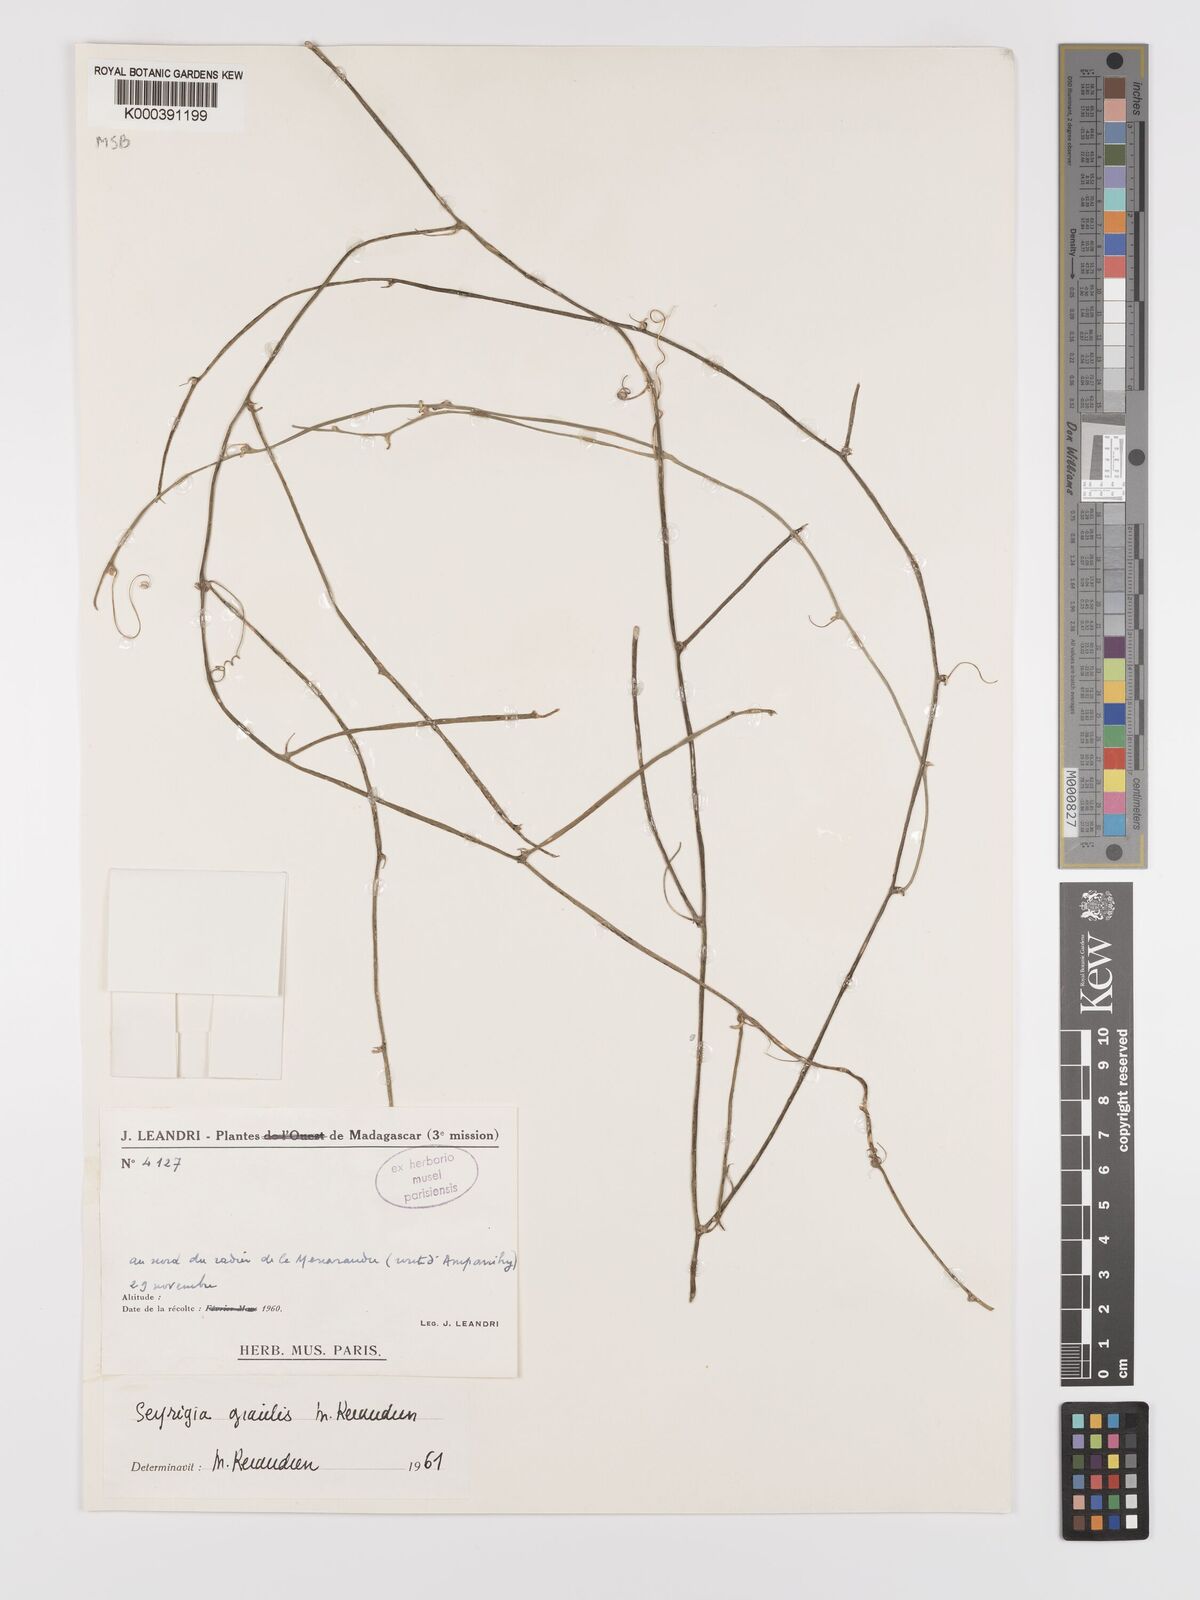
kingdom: Plantae
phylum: Tracheophyta
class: Magnoliopsida
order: Cucurbitales
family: Cucurbitaceae
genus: Seyrigia
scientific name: Seyrigia gracilis
